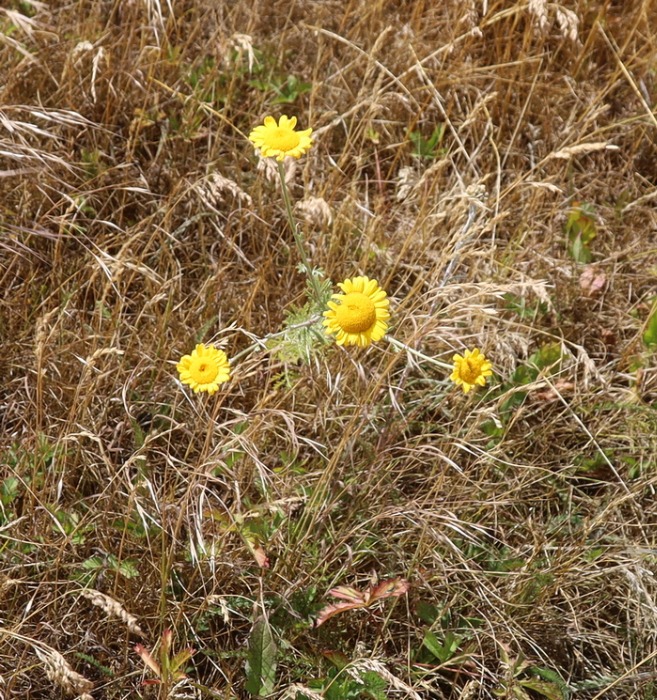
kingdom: Plantae
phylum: Tracheophyta
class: Magnoliopsida
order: Asterales
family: Asteraceae
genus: Cota
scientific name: Cota tinctoria
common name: Farve-gåseurt
